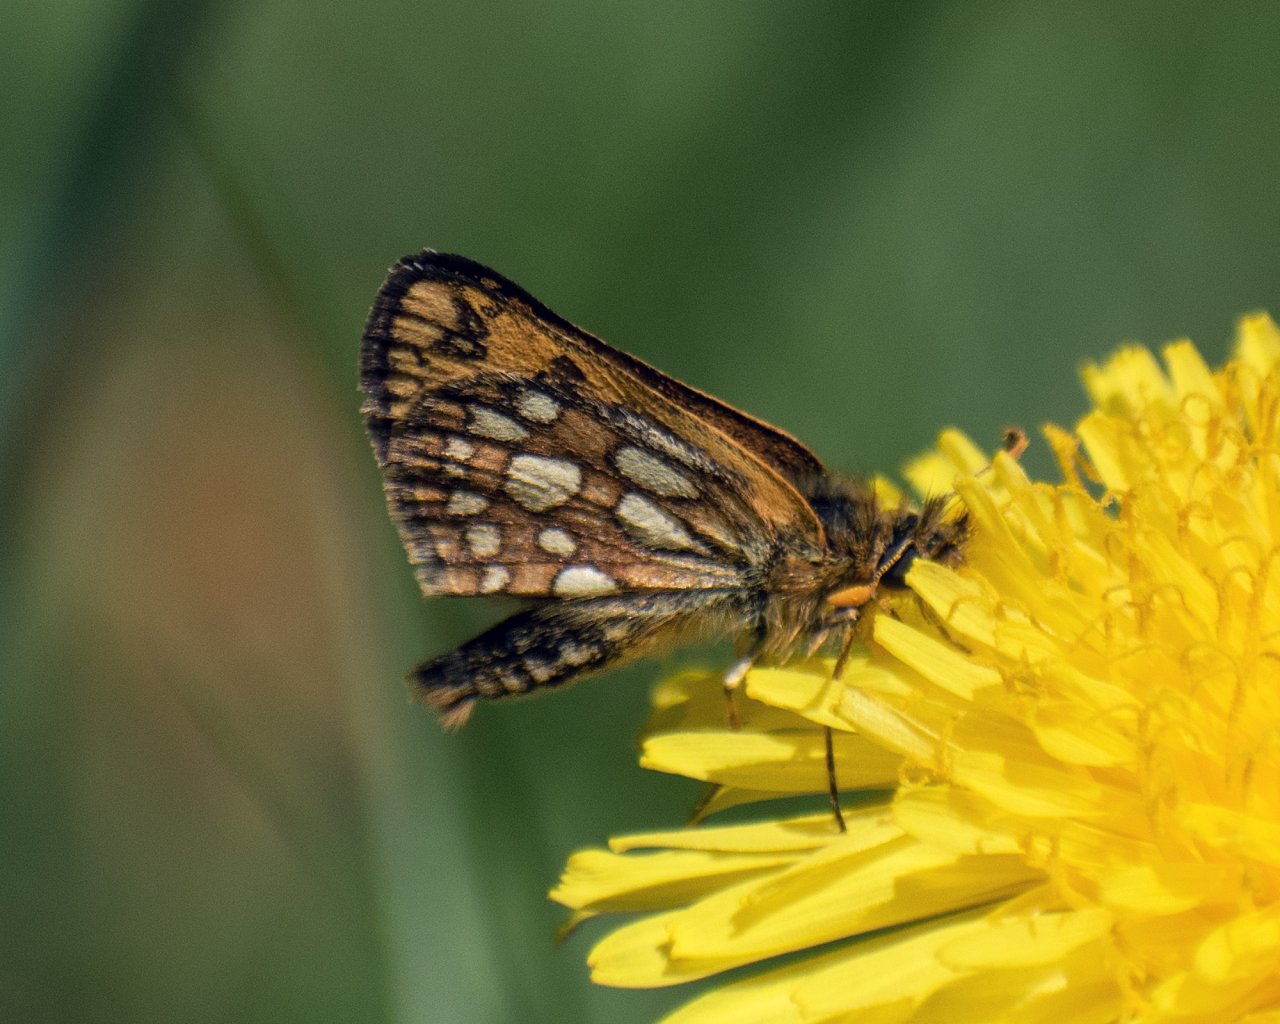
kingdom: Animalia
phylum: Arthropoda
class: Insecta
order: Lepidoptera
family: Hesperiidae
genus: Carterocephalus
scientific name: Carterocephalus palaemon
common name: Chequered Skipper
